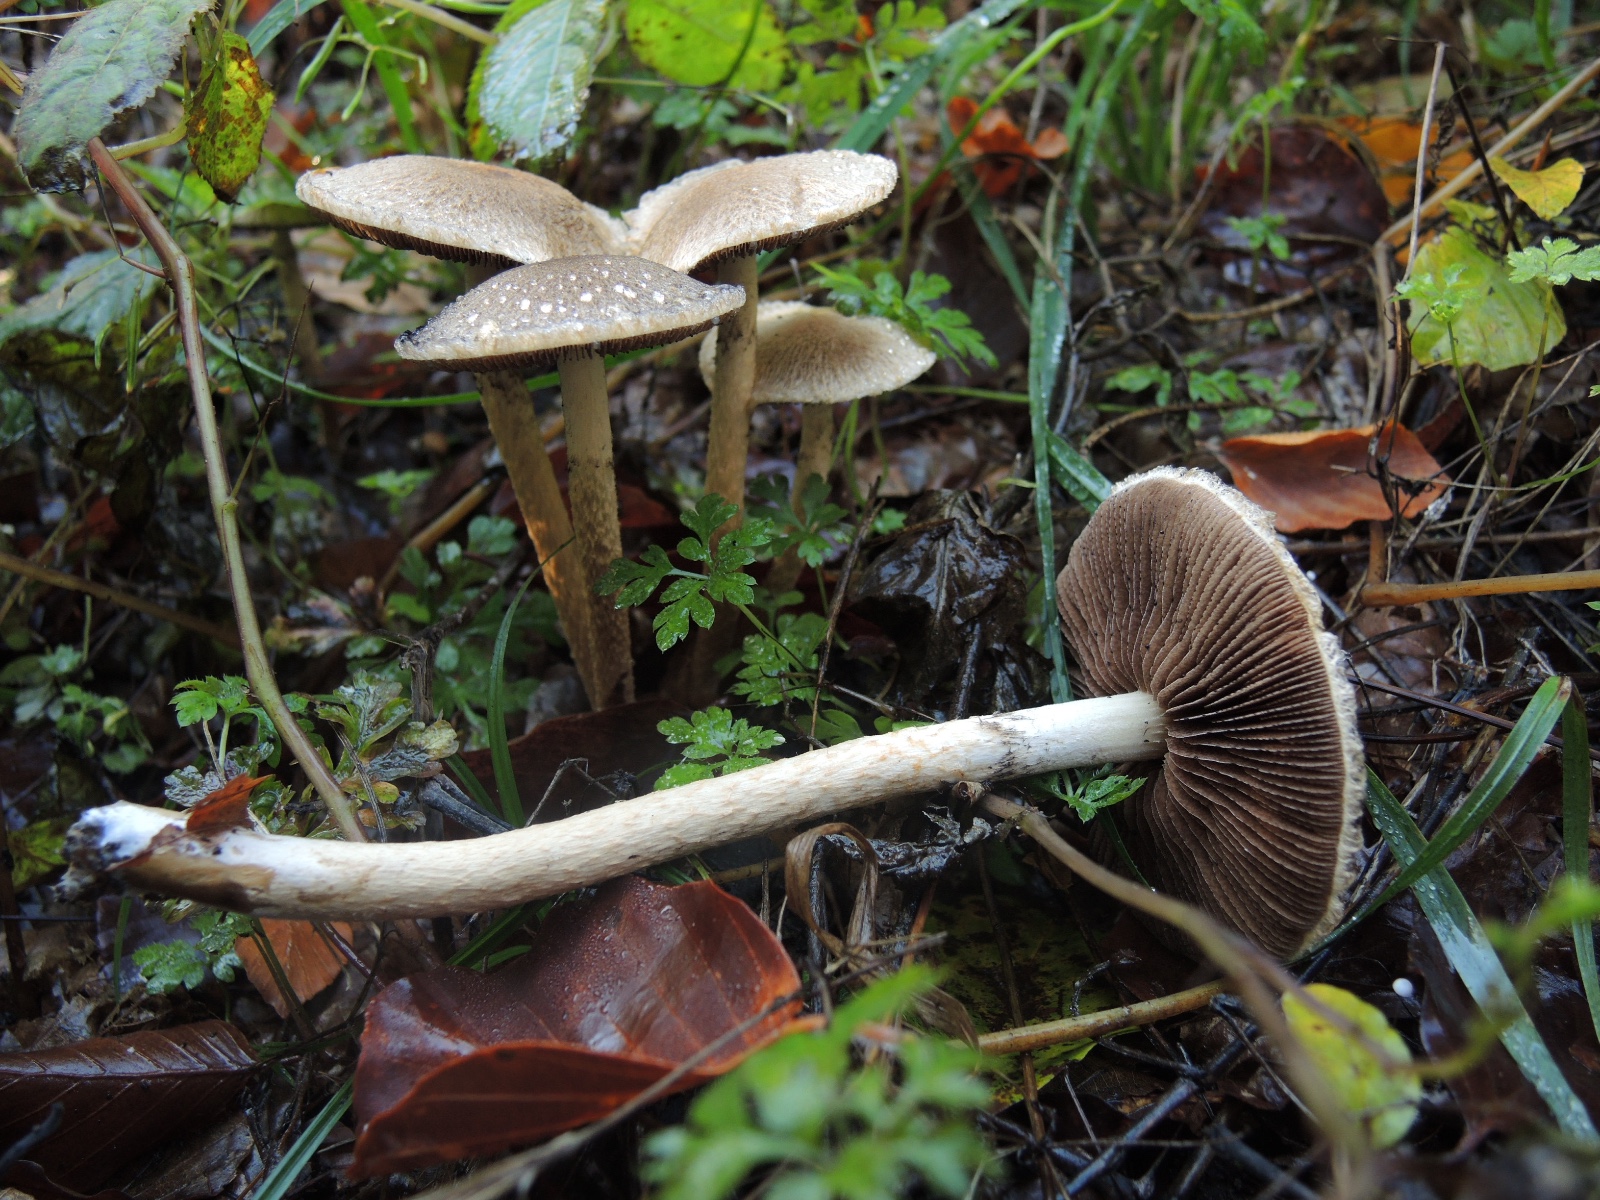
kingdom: Fungi
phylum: Basidiomycota
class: Agaricomycetes
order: Agaricales
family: Psathyrellaceae
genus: Lacrymaria
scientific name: Lacrymaria lacrymabunda
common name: grædende mørkhat
